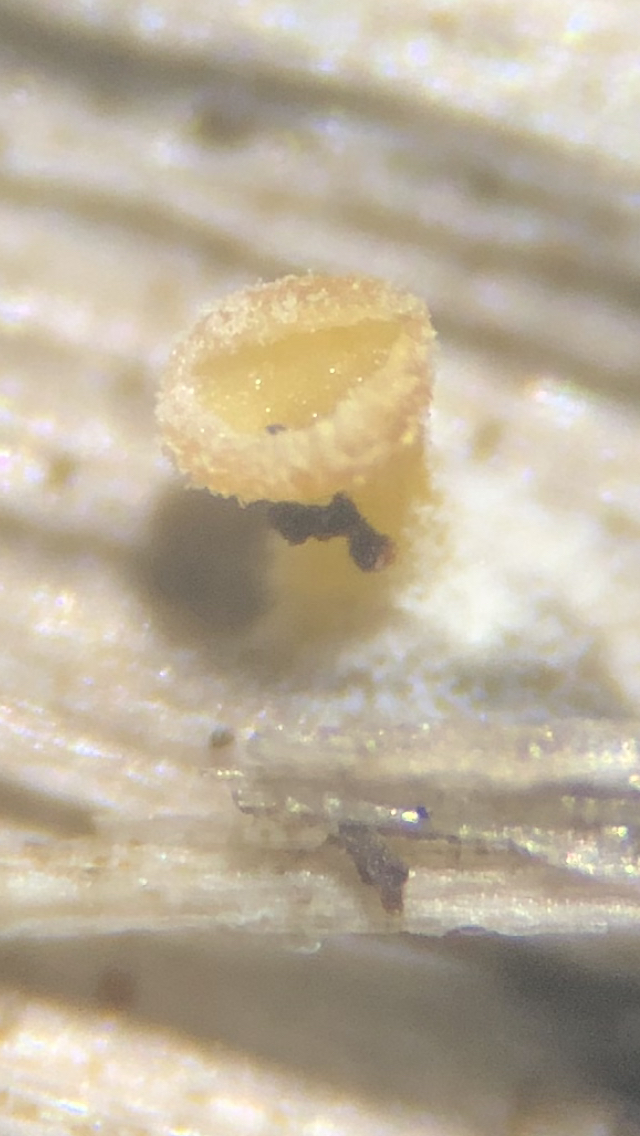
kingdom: Fungi
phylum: Basidiomycota
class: Agaricomycetes
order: Agaricales
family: Marasmiaceae
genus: Calyptella
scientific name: Calyptella campanula
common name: gul nældehue
